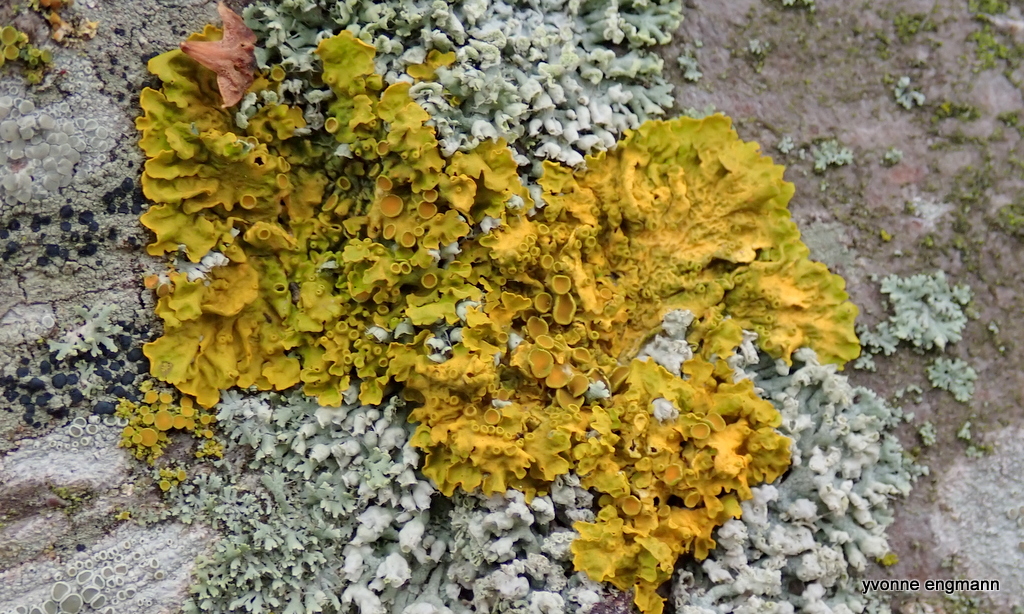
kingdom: Fungi
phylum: Ascomycota
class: Lecanoromycetes
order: Teloschistales
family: Teloschistaceae
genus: Xanthoria
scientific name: Xanthoria parietina
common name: almindelig væggelav
